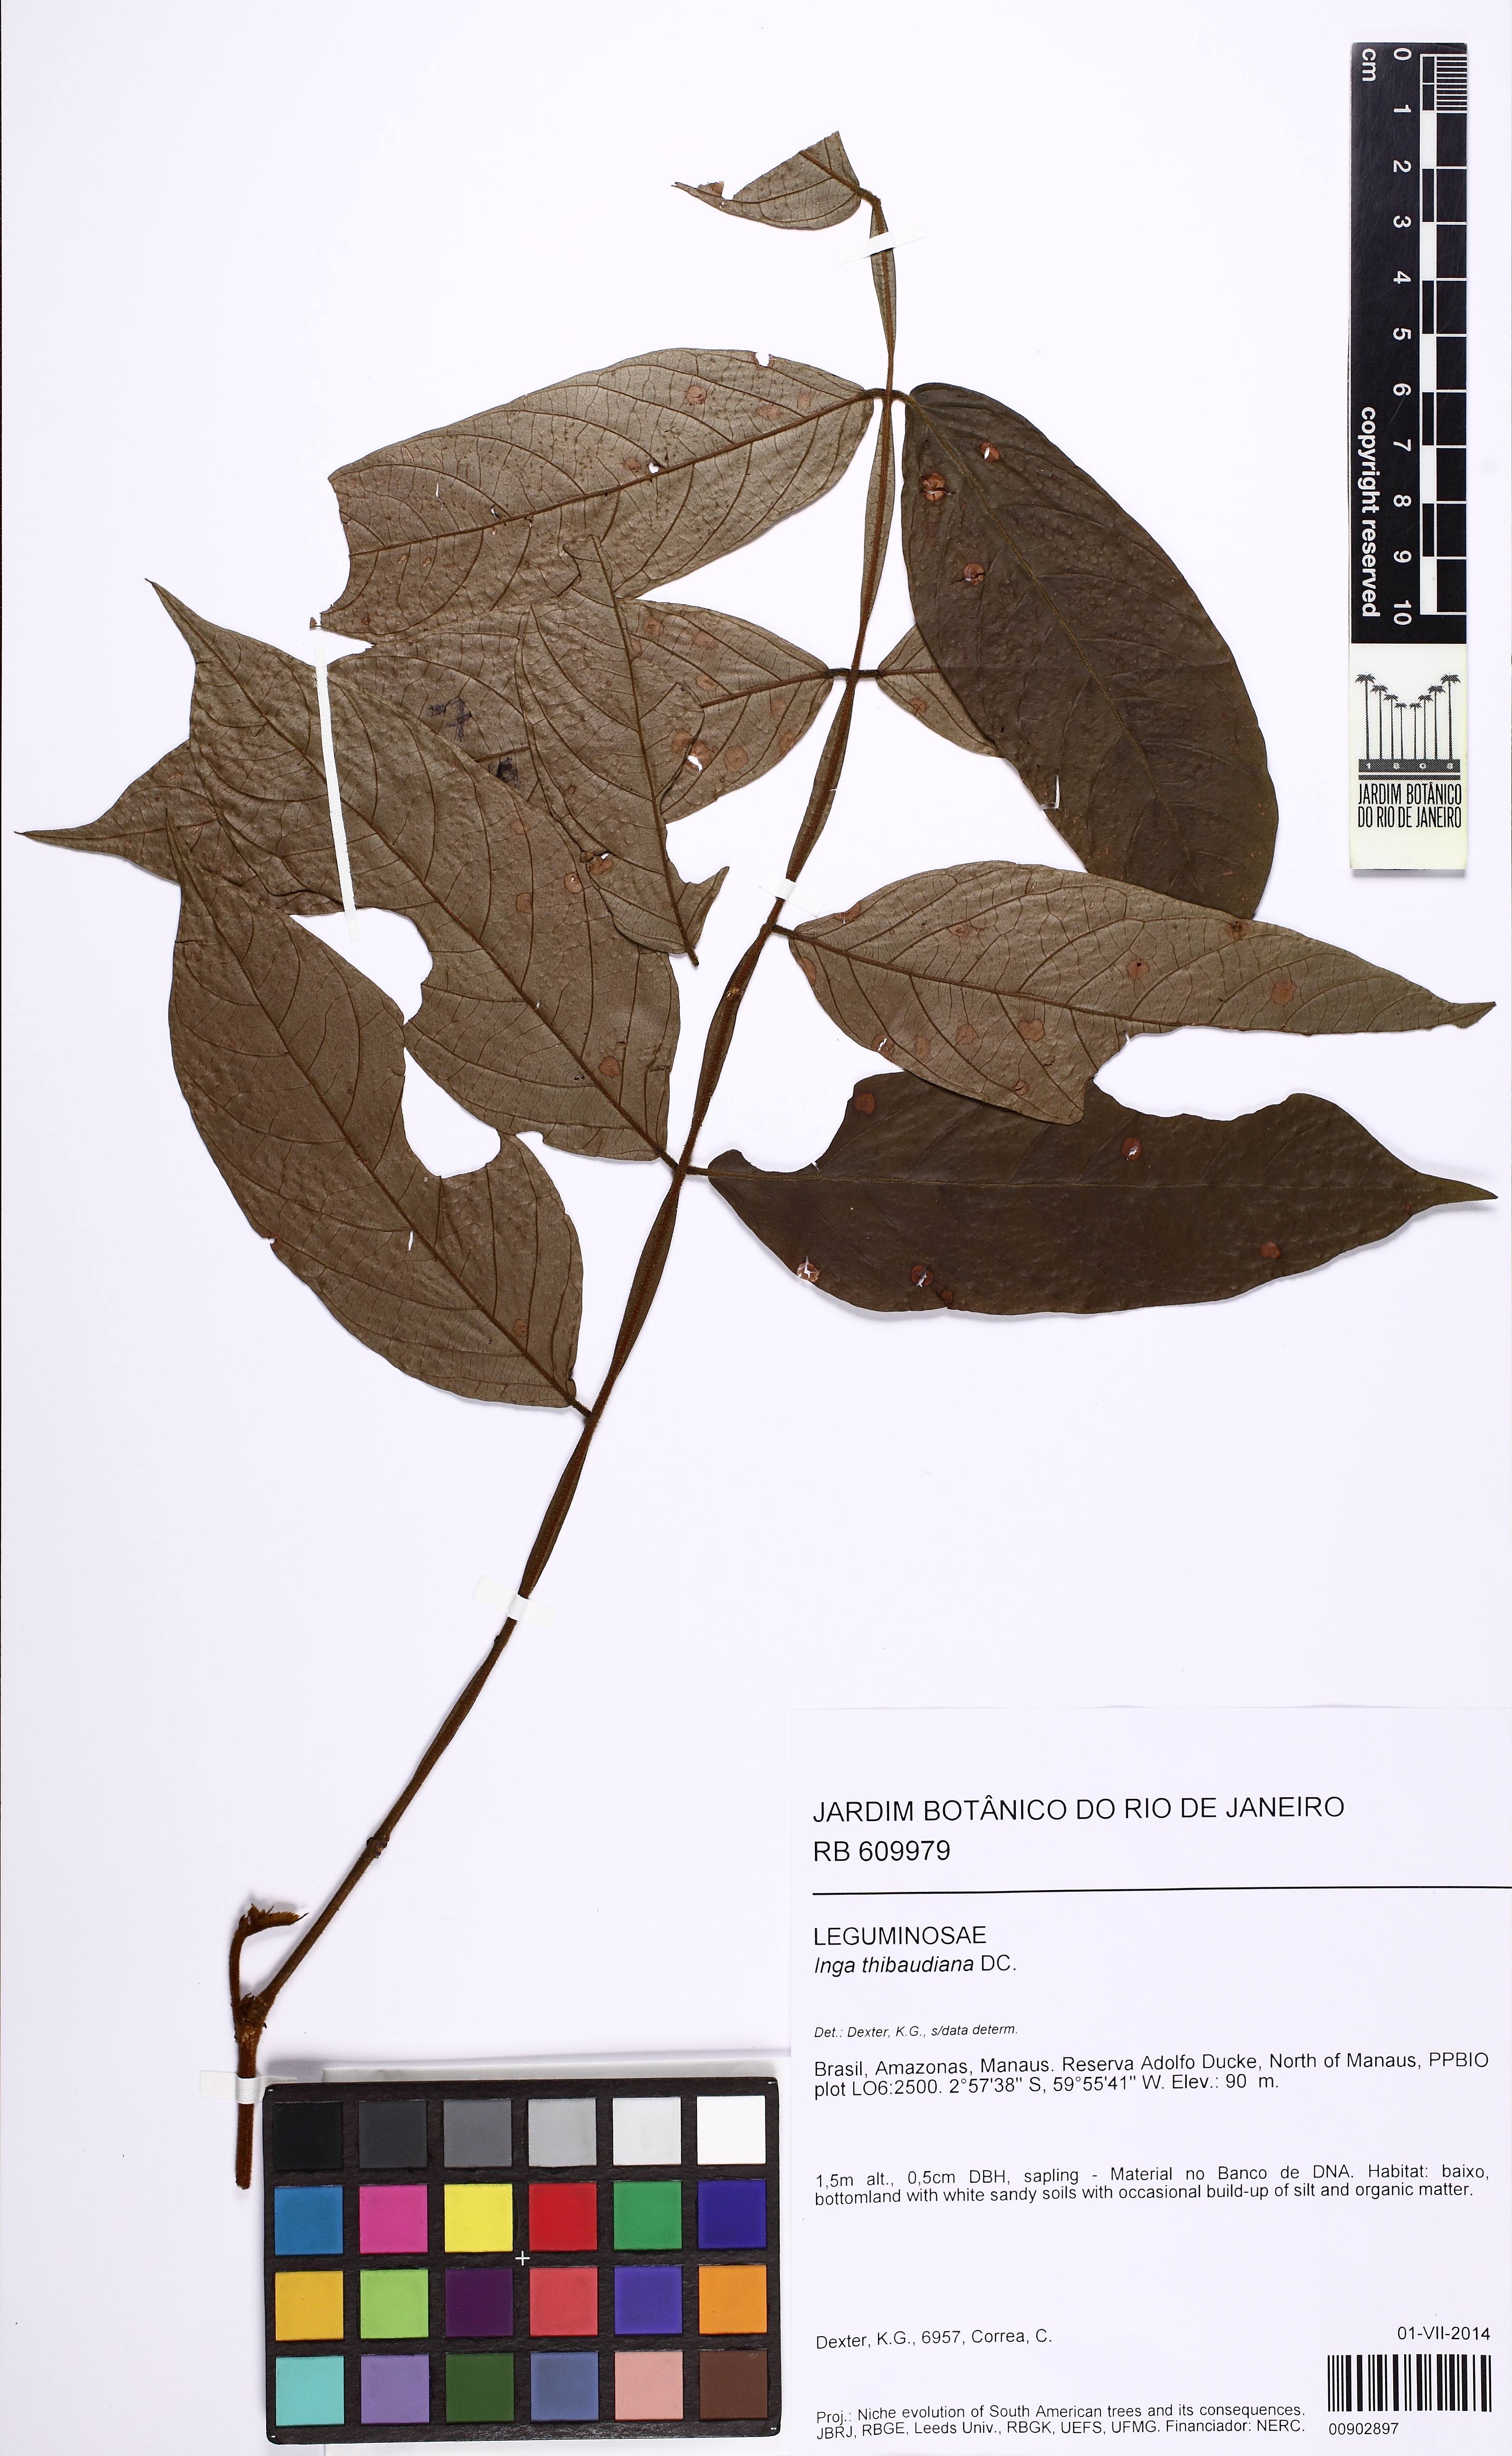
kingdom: Plantae
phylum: Tracheophyta
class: Magnoliopsida
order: Fabales
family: Fabaceae
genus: Inga
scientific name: Inga thibaudiana
